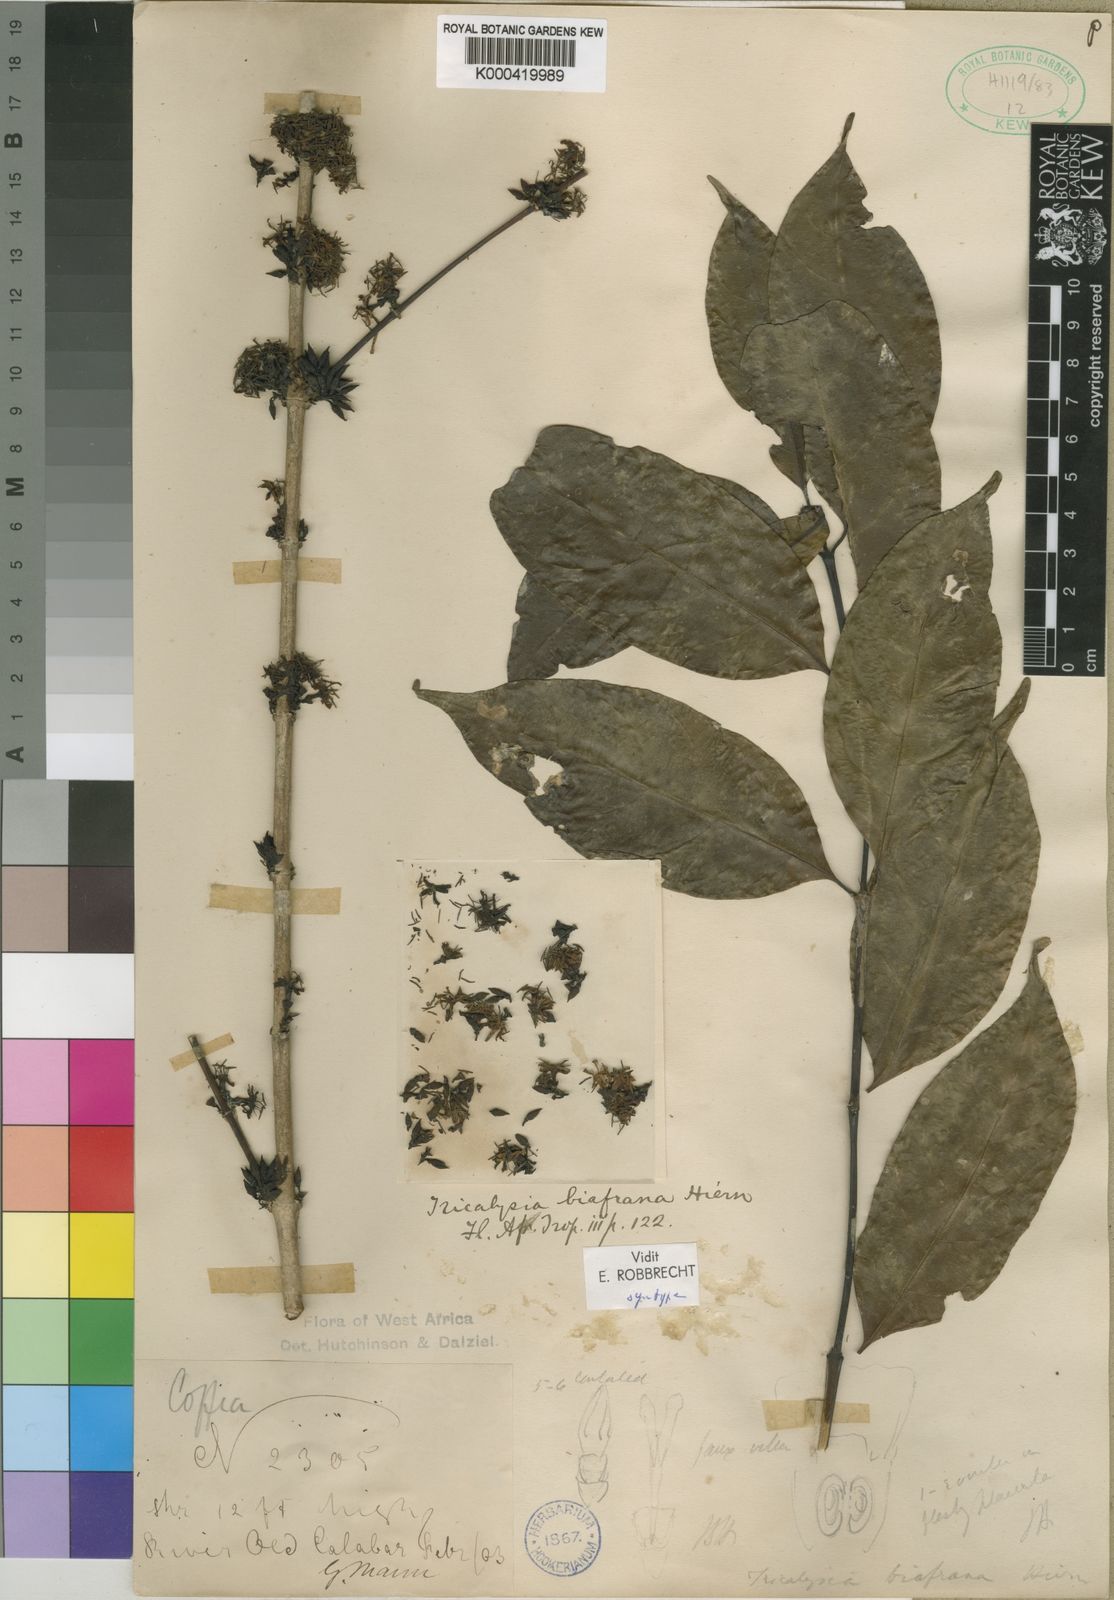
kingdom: Plantae
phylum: Tracheophyta
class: Magnoliopsida
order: Gentianales
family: Rubiaceae
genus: Tricalysia
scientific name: Tricalysia biafrana
